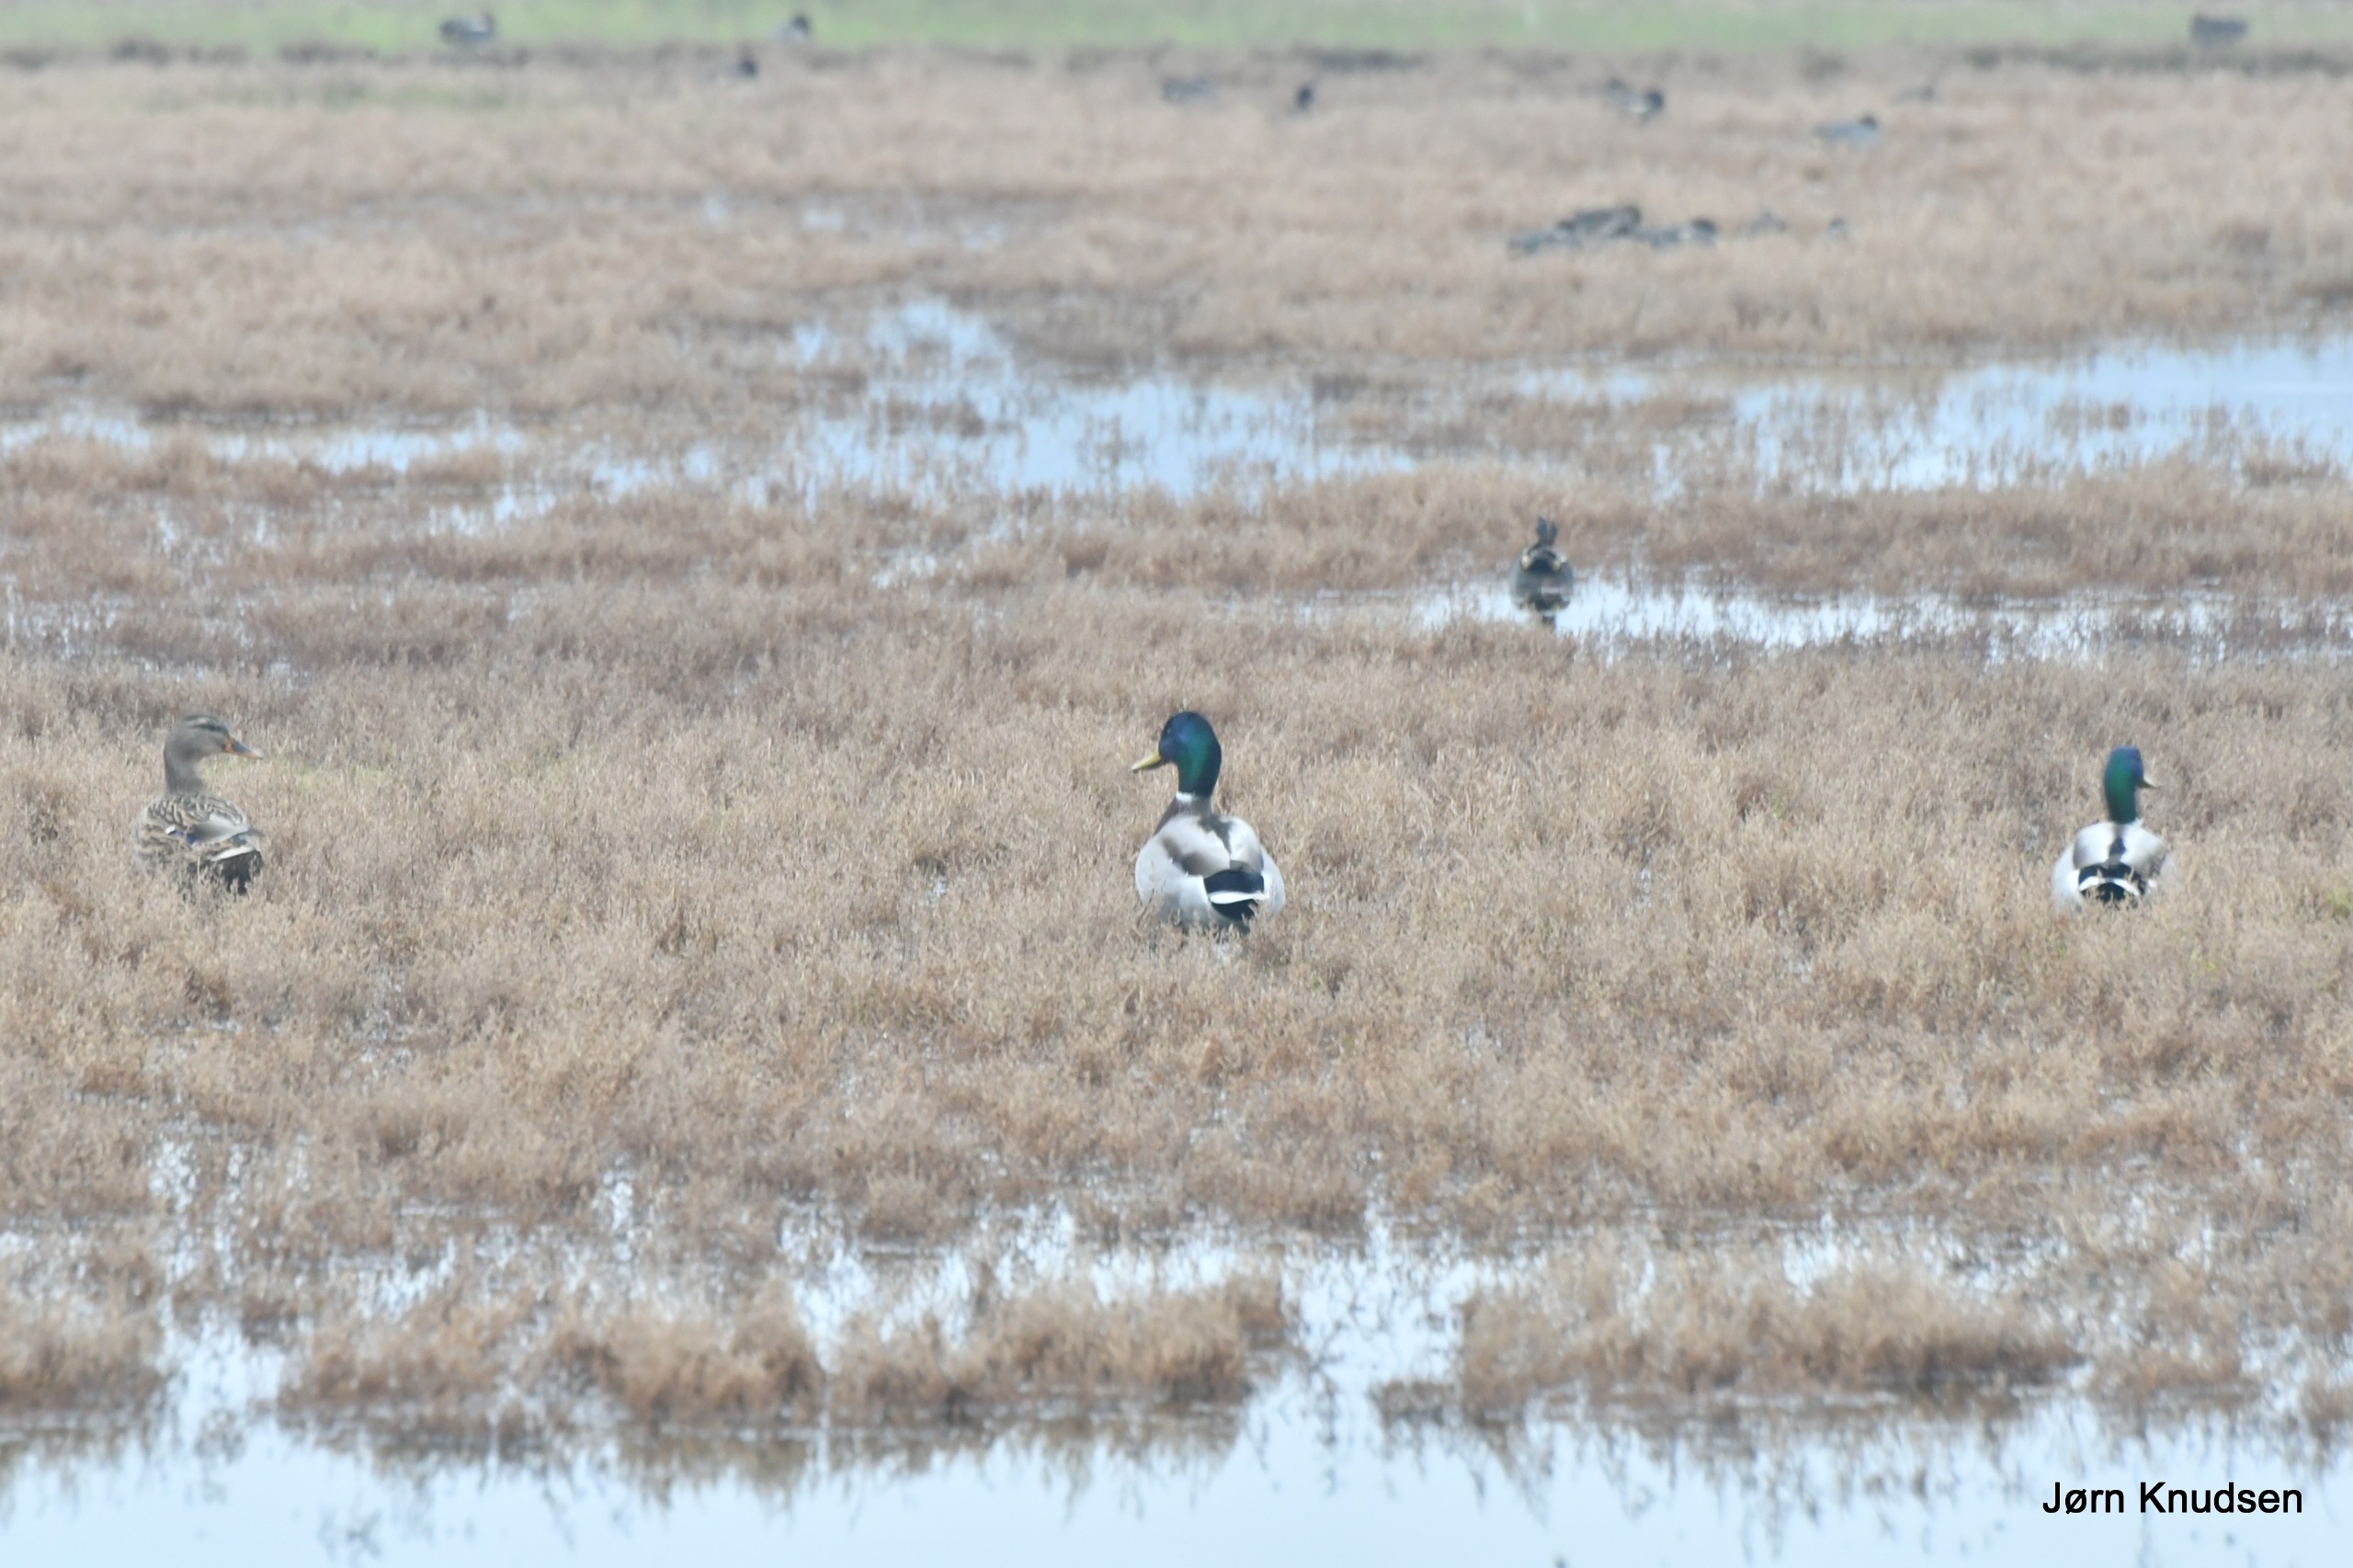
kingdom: Animalia
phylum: Chordata
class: Aves
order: Anseriformes
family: Anatidae
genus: Anas
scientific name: Anas platyrhynchos
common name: Gråand
